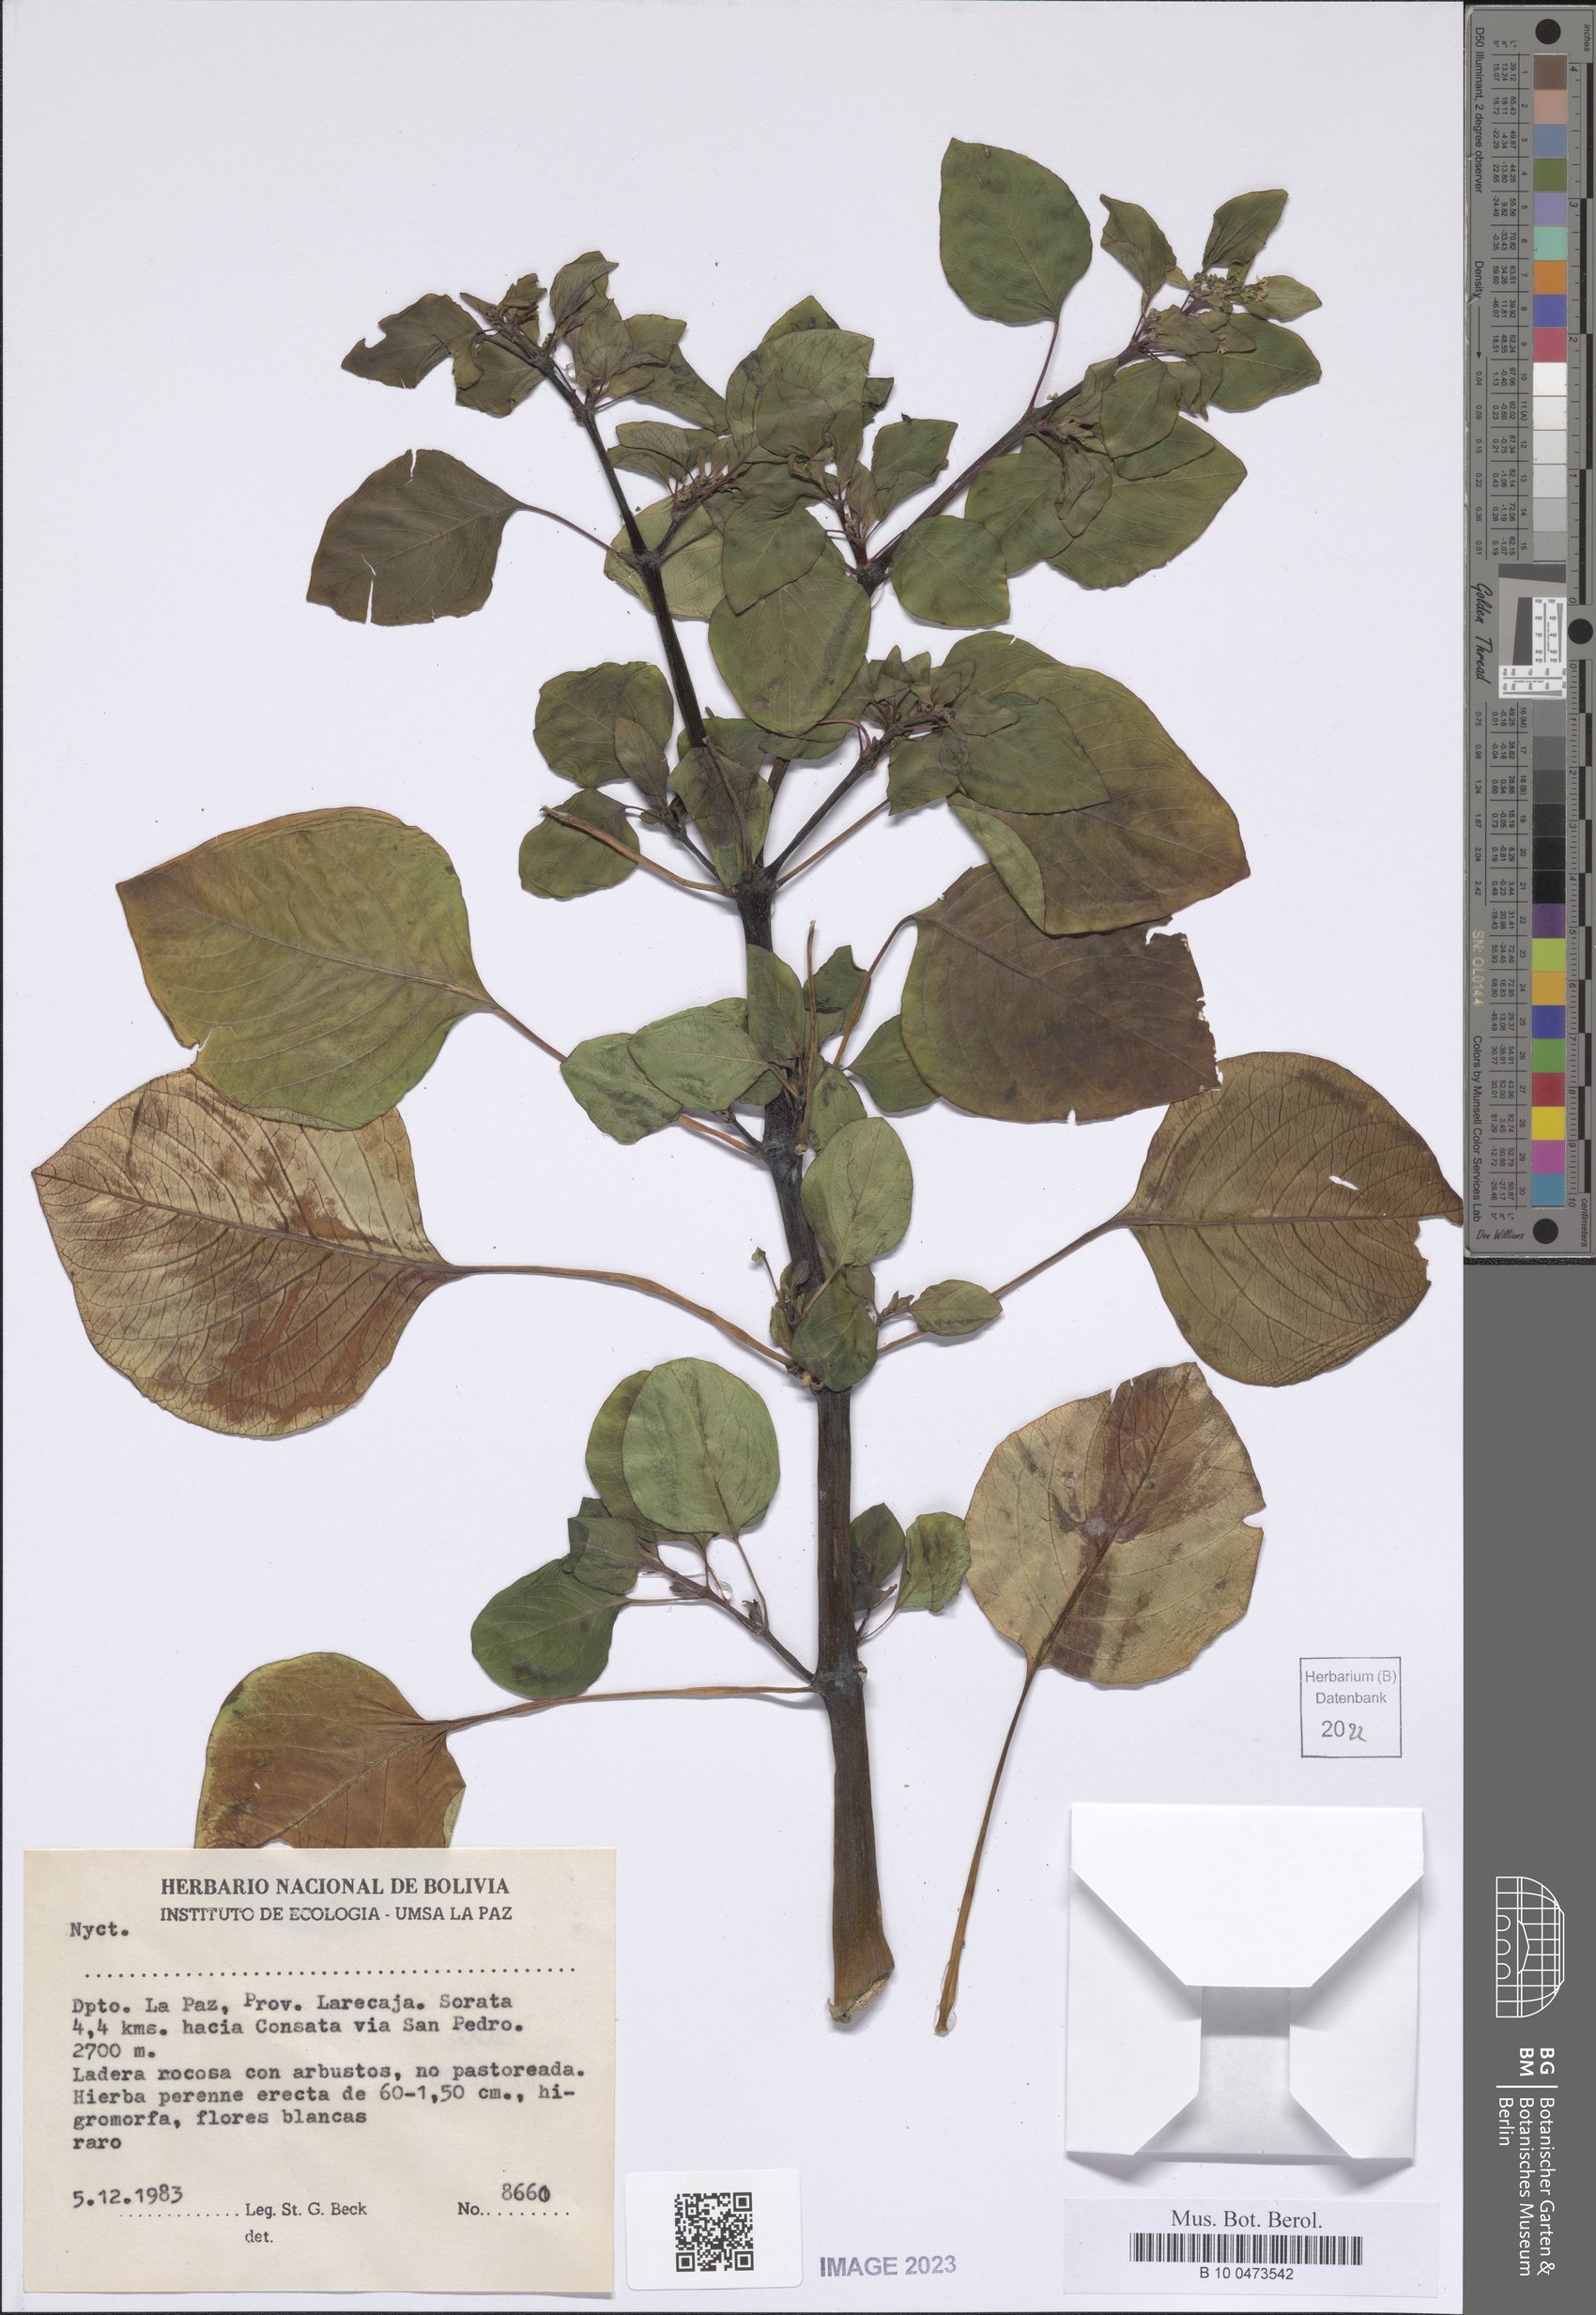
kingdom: Plantae
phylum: Tracheophyta
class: Magnoliopsida
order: Caryophyllales
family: Nyctaginaceae
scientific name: Nyctaginaceae
